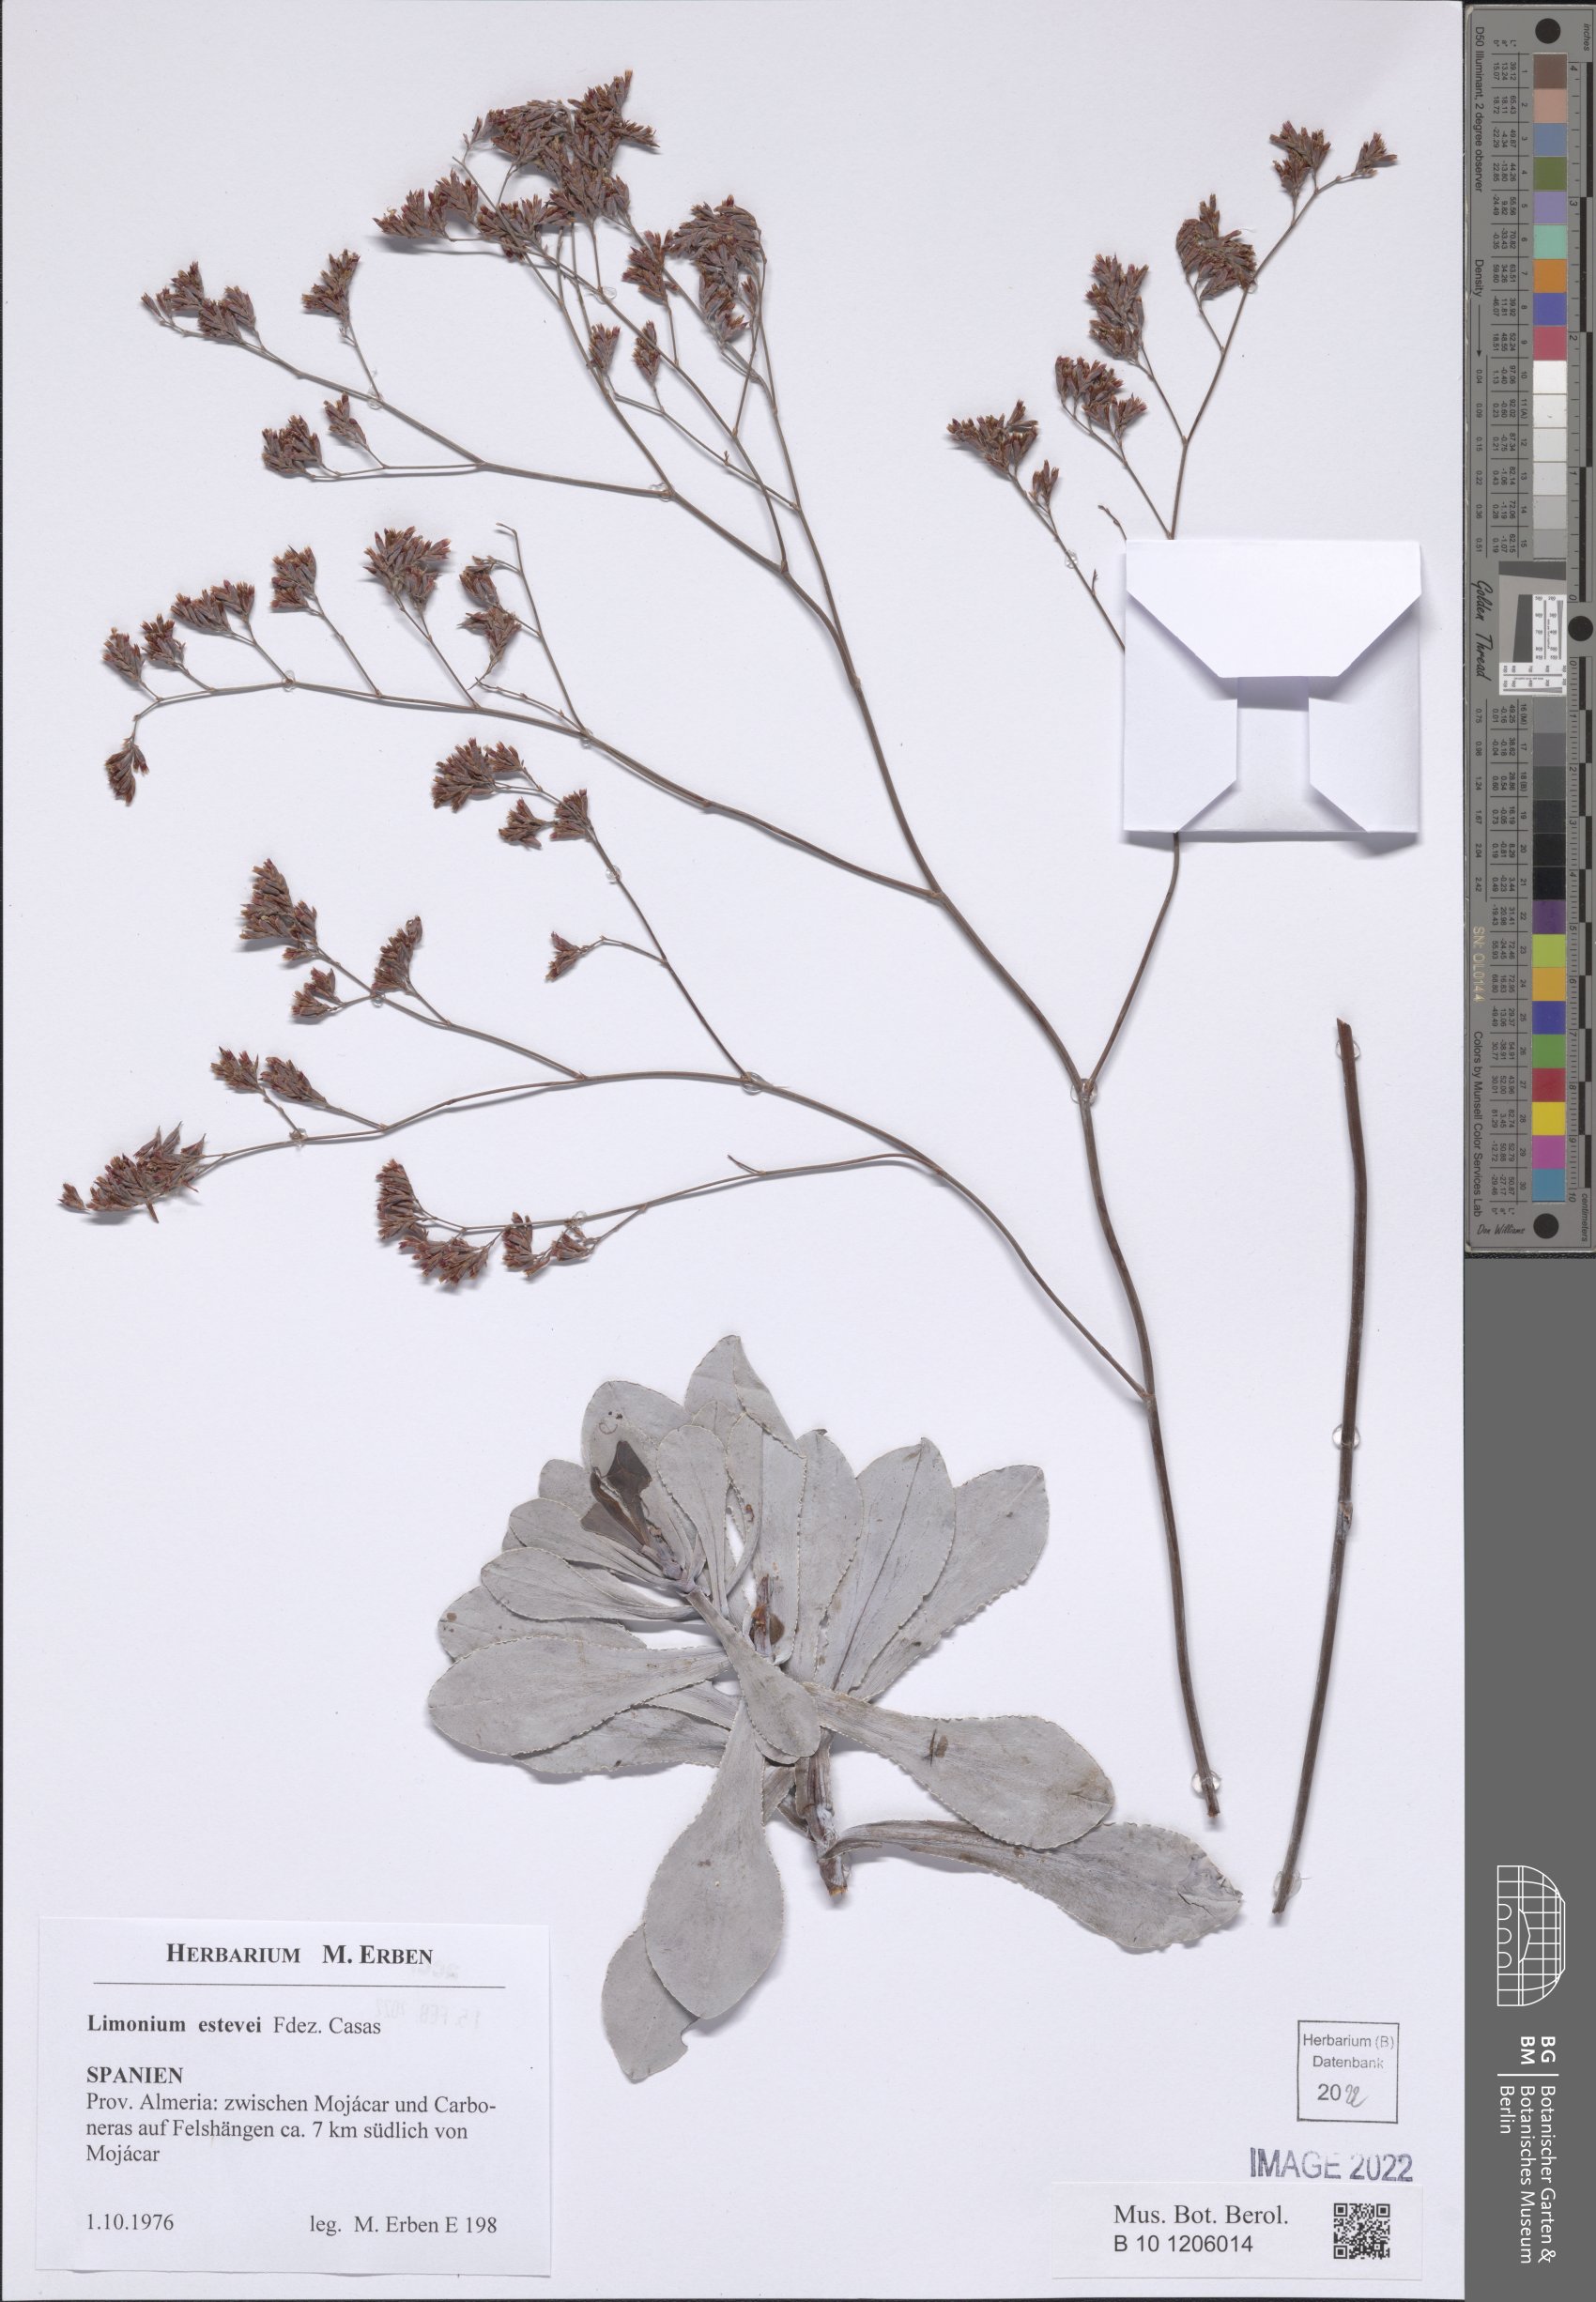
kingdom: Plantae
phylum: Tracheophyta
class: Magnoliopsida
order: Caryophyllales
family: Plumbaginaceae
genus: Limonium
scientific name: Limonium estevei
